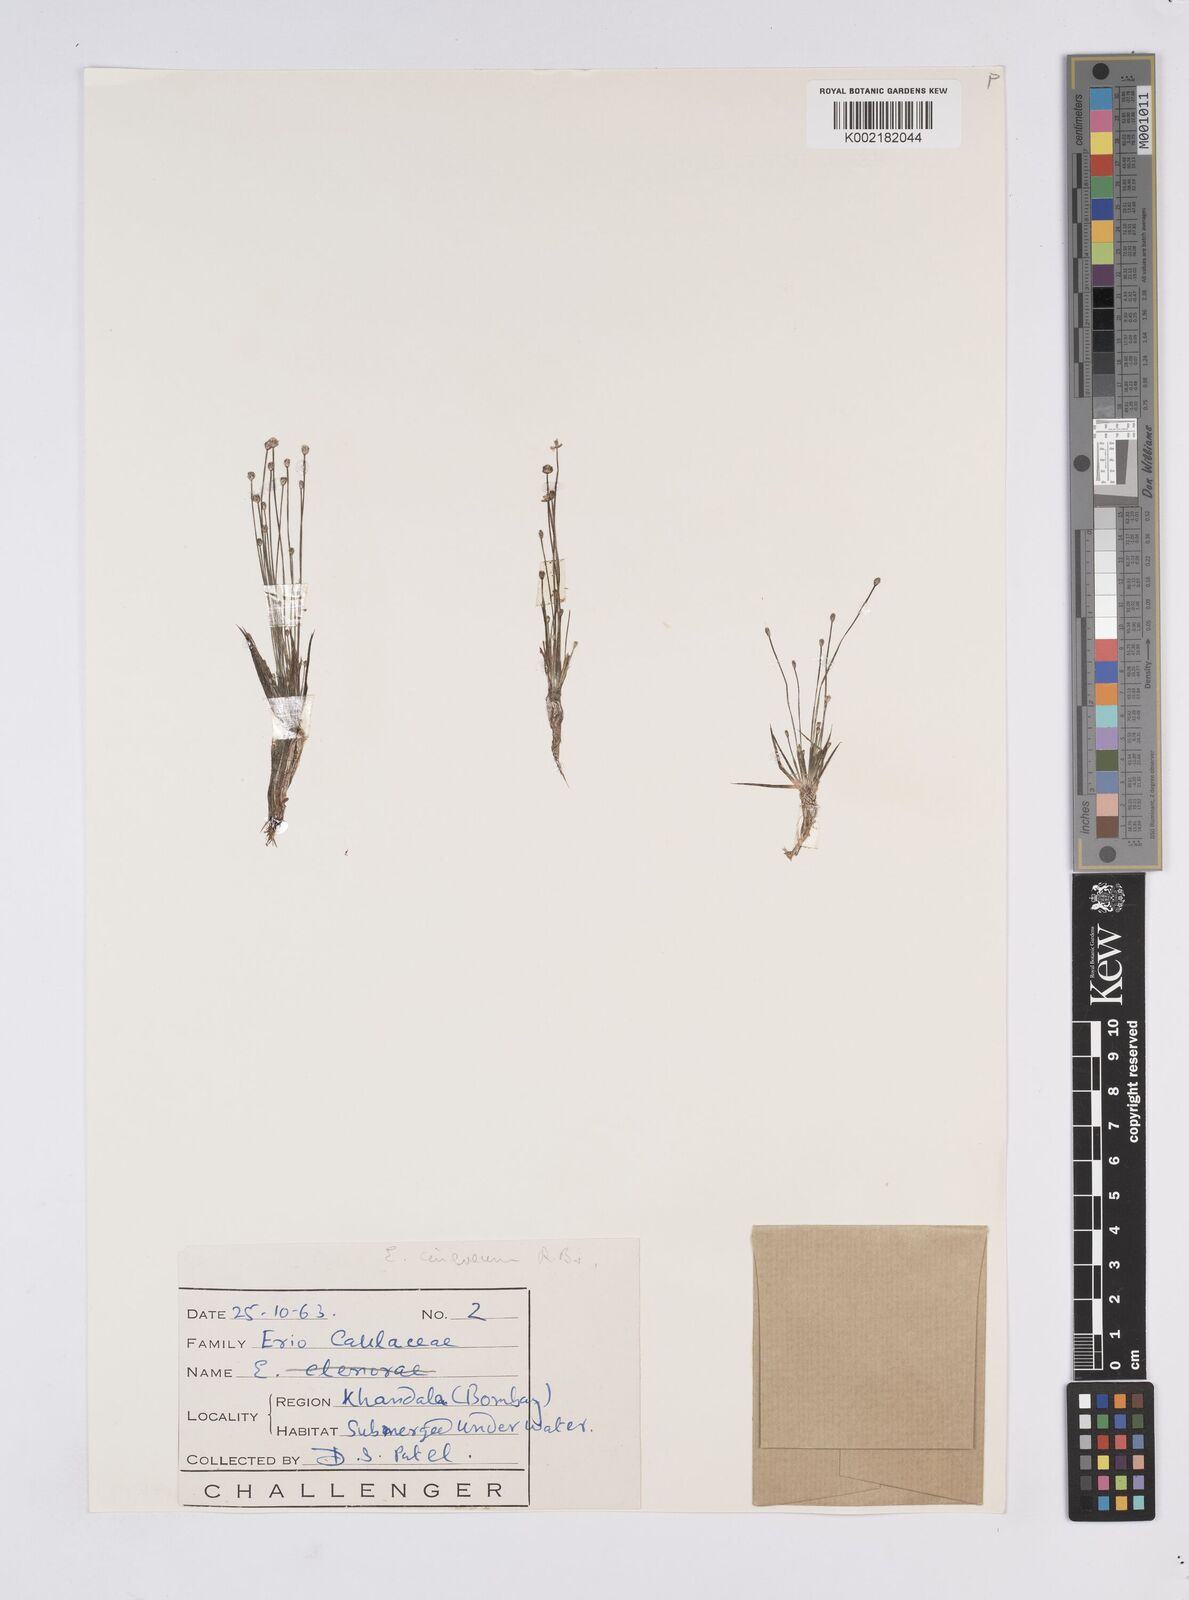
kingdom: Plantae
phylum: Tracheophyta
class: Liliopsida
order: Poales
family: Eriocaulaceae
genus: Eriocaulon
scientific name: Eriocaulon cinereum
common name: Ashy pipewort
